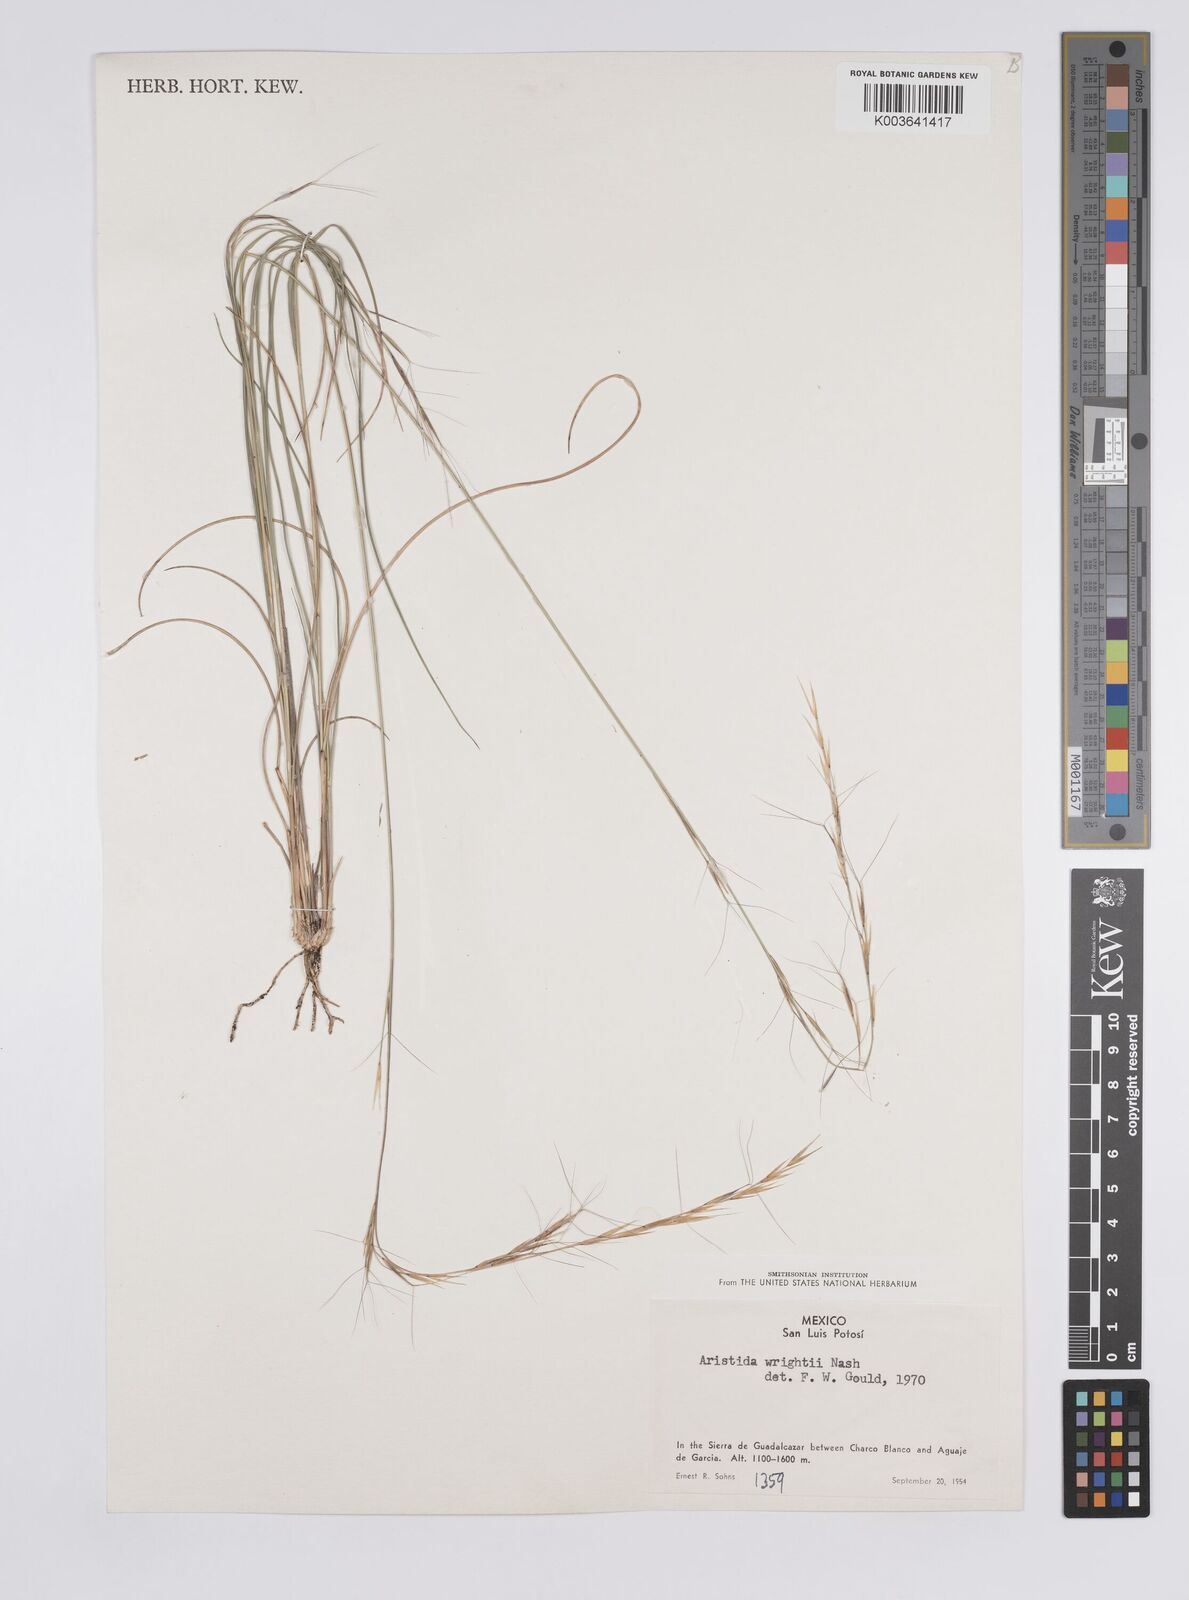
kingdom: Plantae
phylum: Tracheophyta
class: Liliopsida
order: Poales
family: Poaceae
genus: Aristida
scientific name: Aristida purpurea
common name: Purple threeawn
